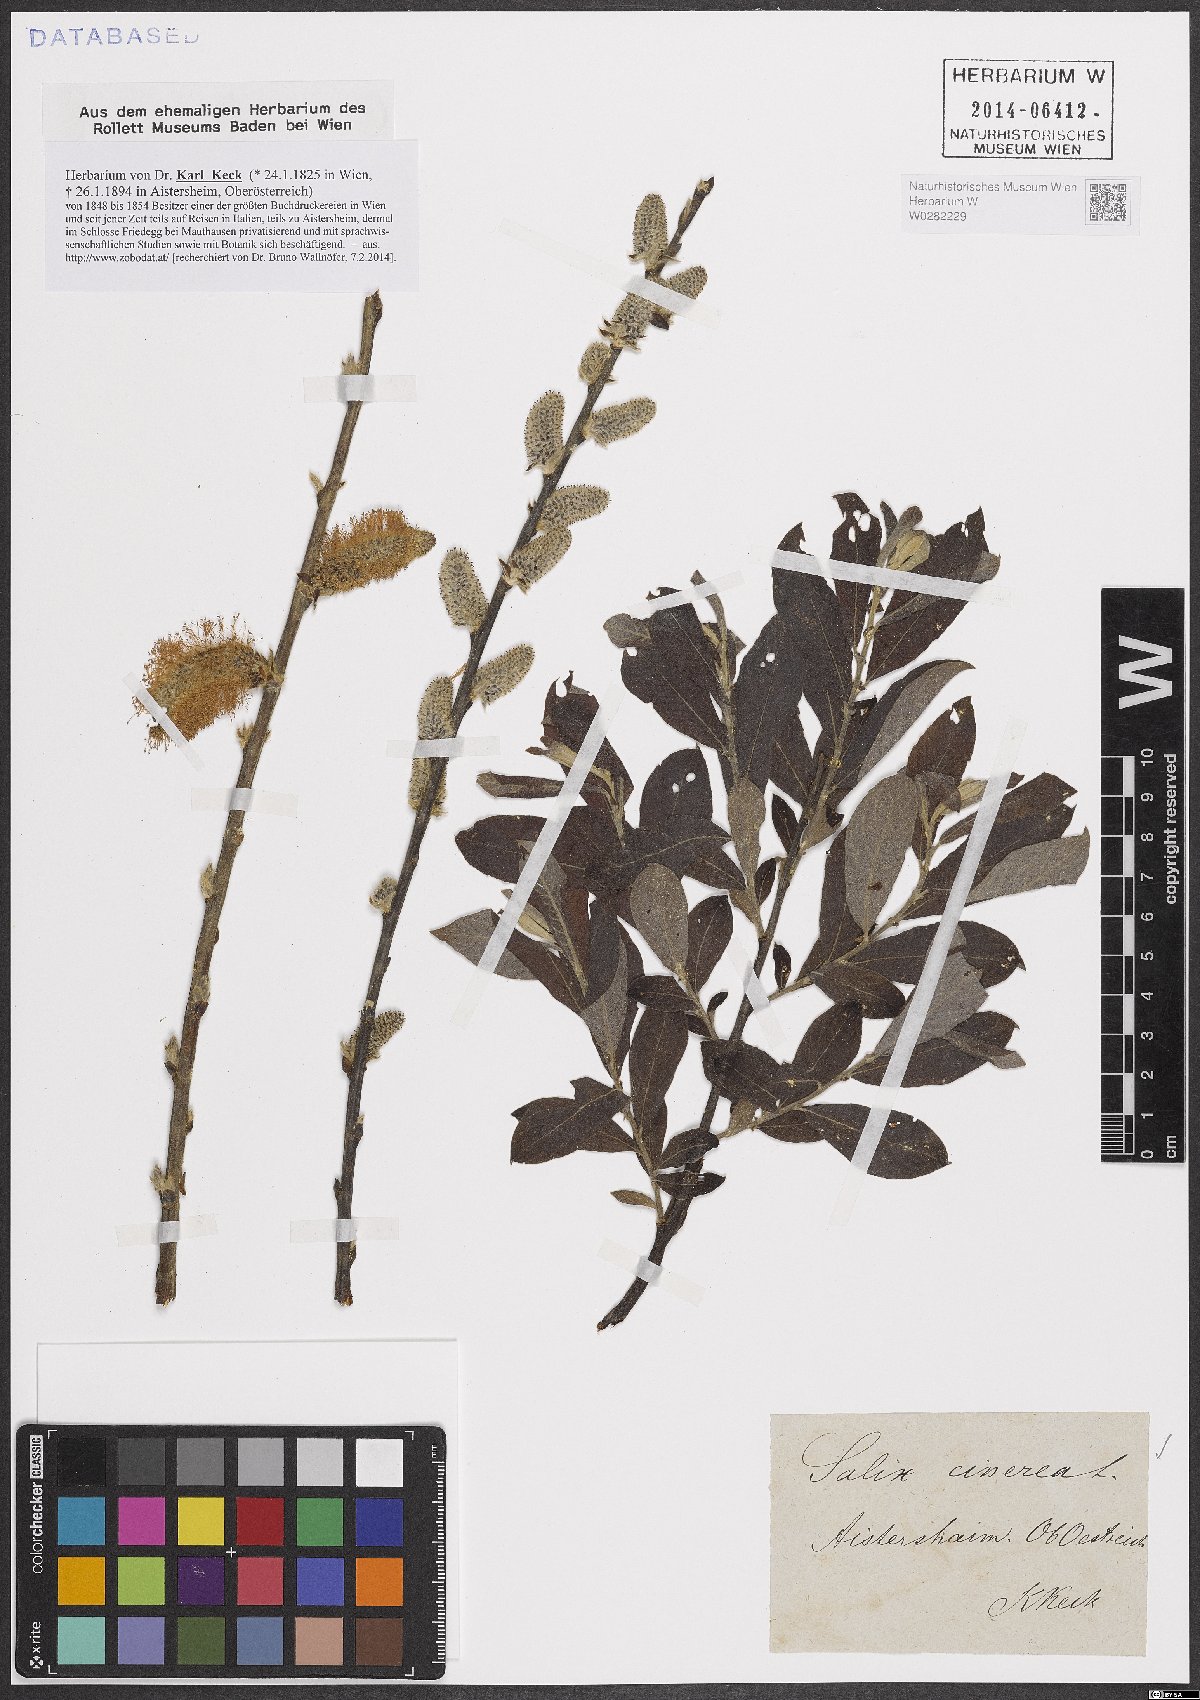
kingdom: Plantae
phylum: Tracheophyta
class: Magnoliopsida
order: Malpighiales
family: Salicaceae
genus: Salix
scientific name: Salix cinerea
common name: Common sallow
